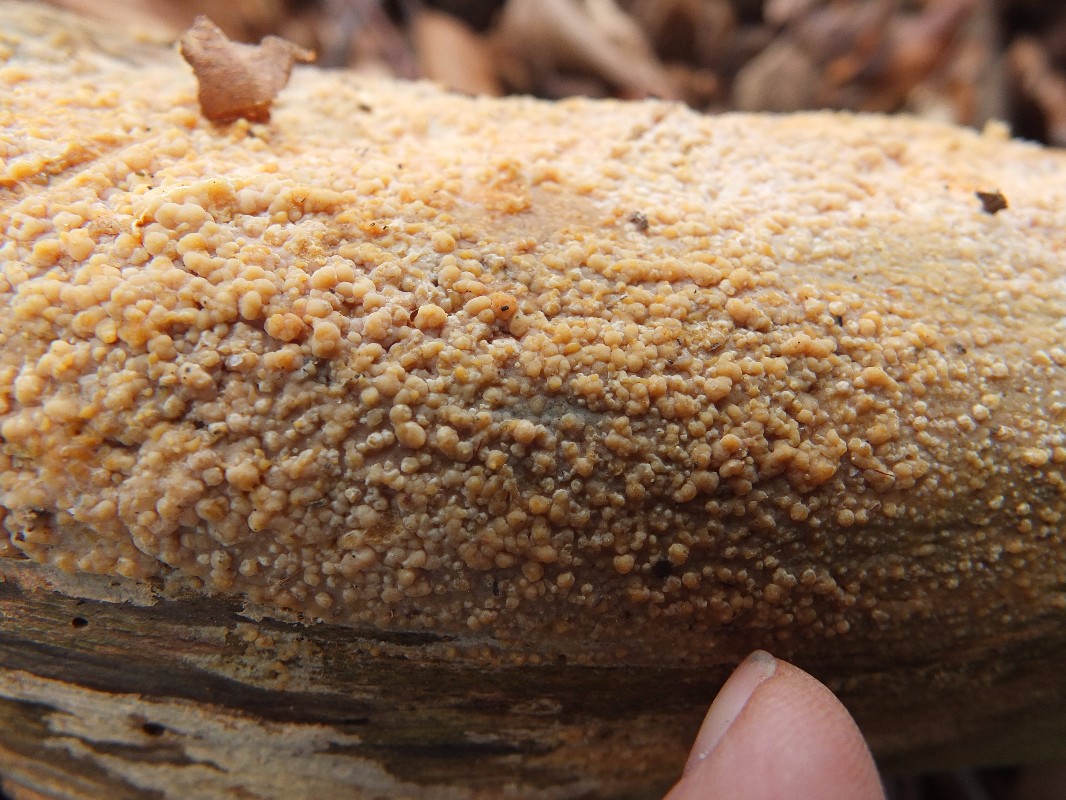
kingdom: Fungi
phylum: Basidiomycota
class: Microbotryomycetes
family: Colacogloeaceae
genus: Colacogloea
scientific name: Colacogloea effusa
